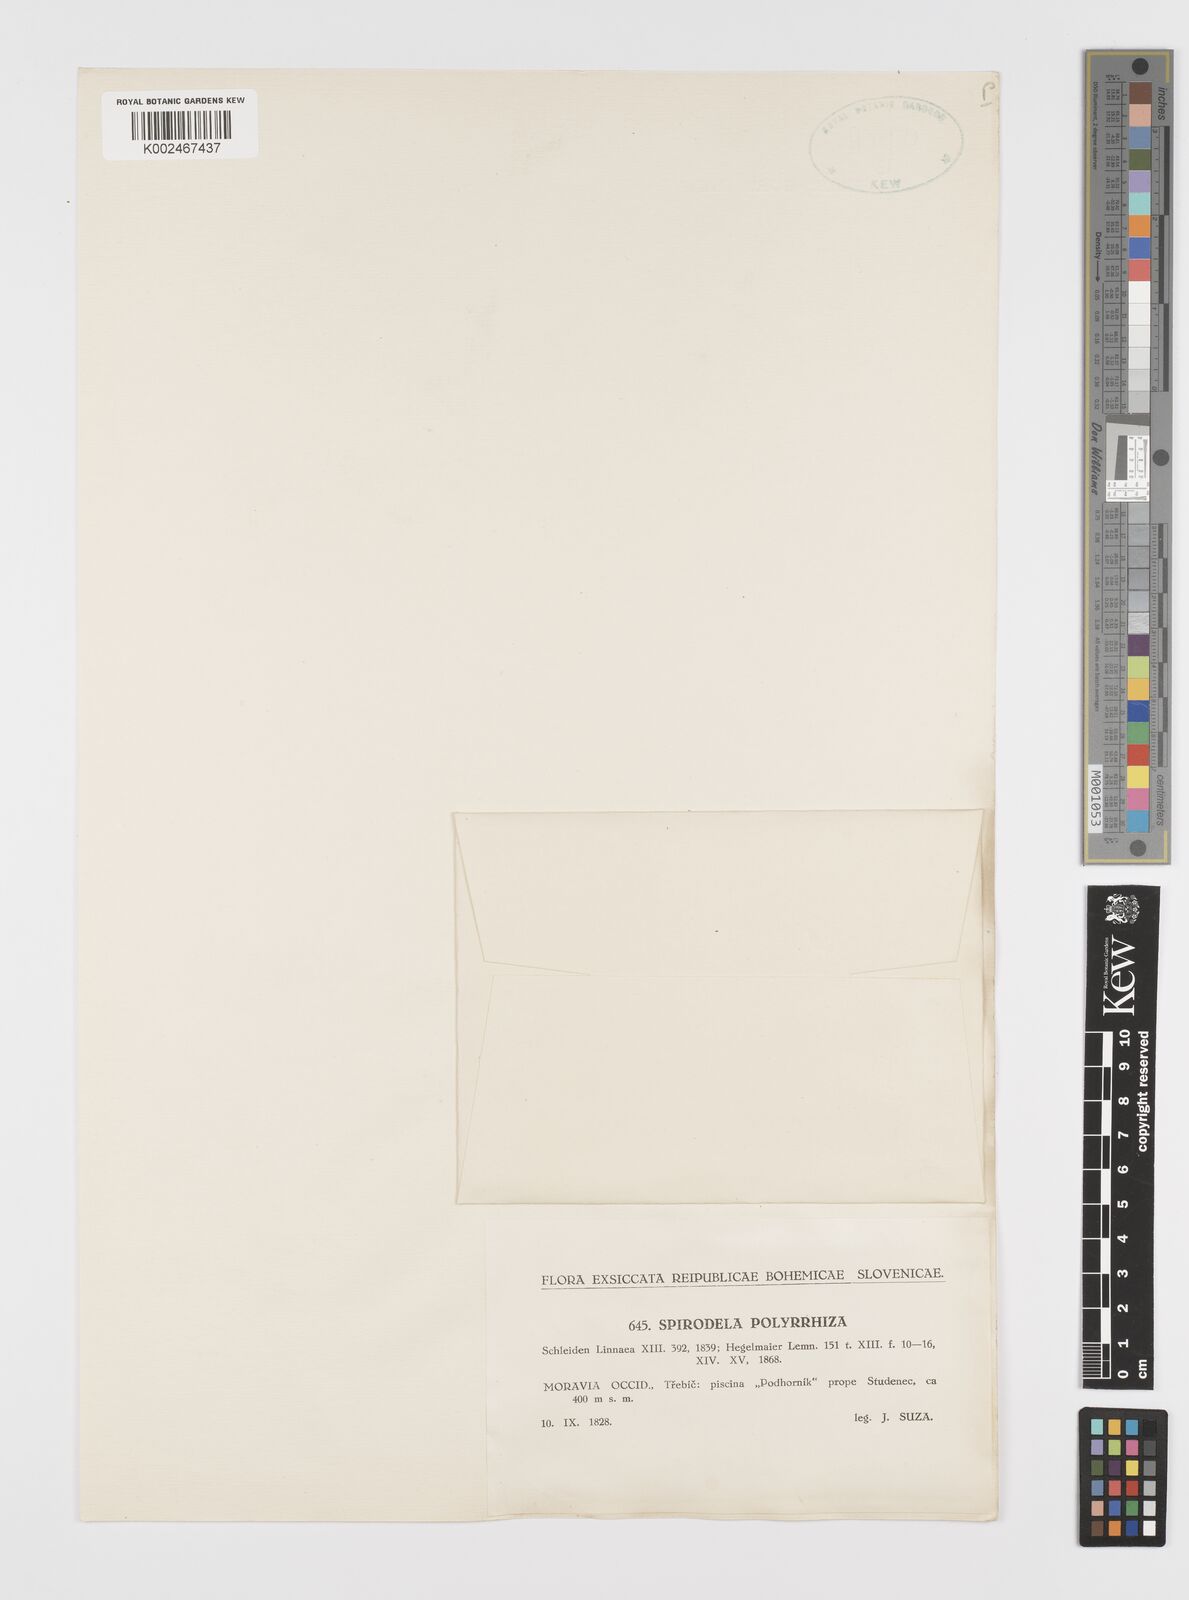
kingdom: Plantae
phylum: Tracheophyta
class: Liliopsida
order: Alismatales
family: Araceae
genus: Spirodela
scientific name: Spirodela polyrhiza
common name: Great duckweed
